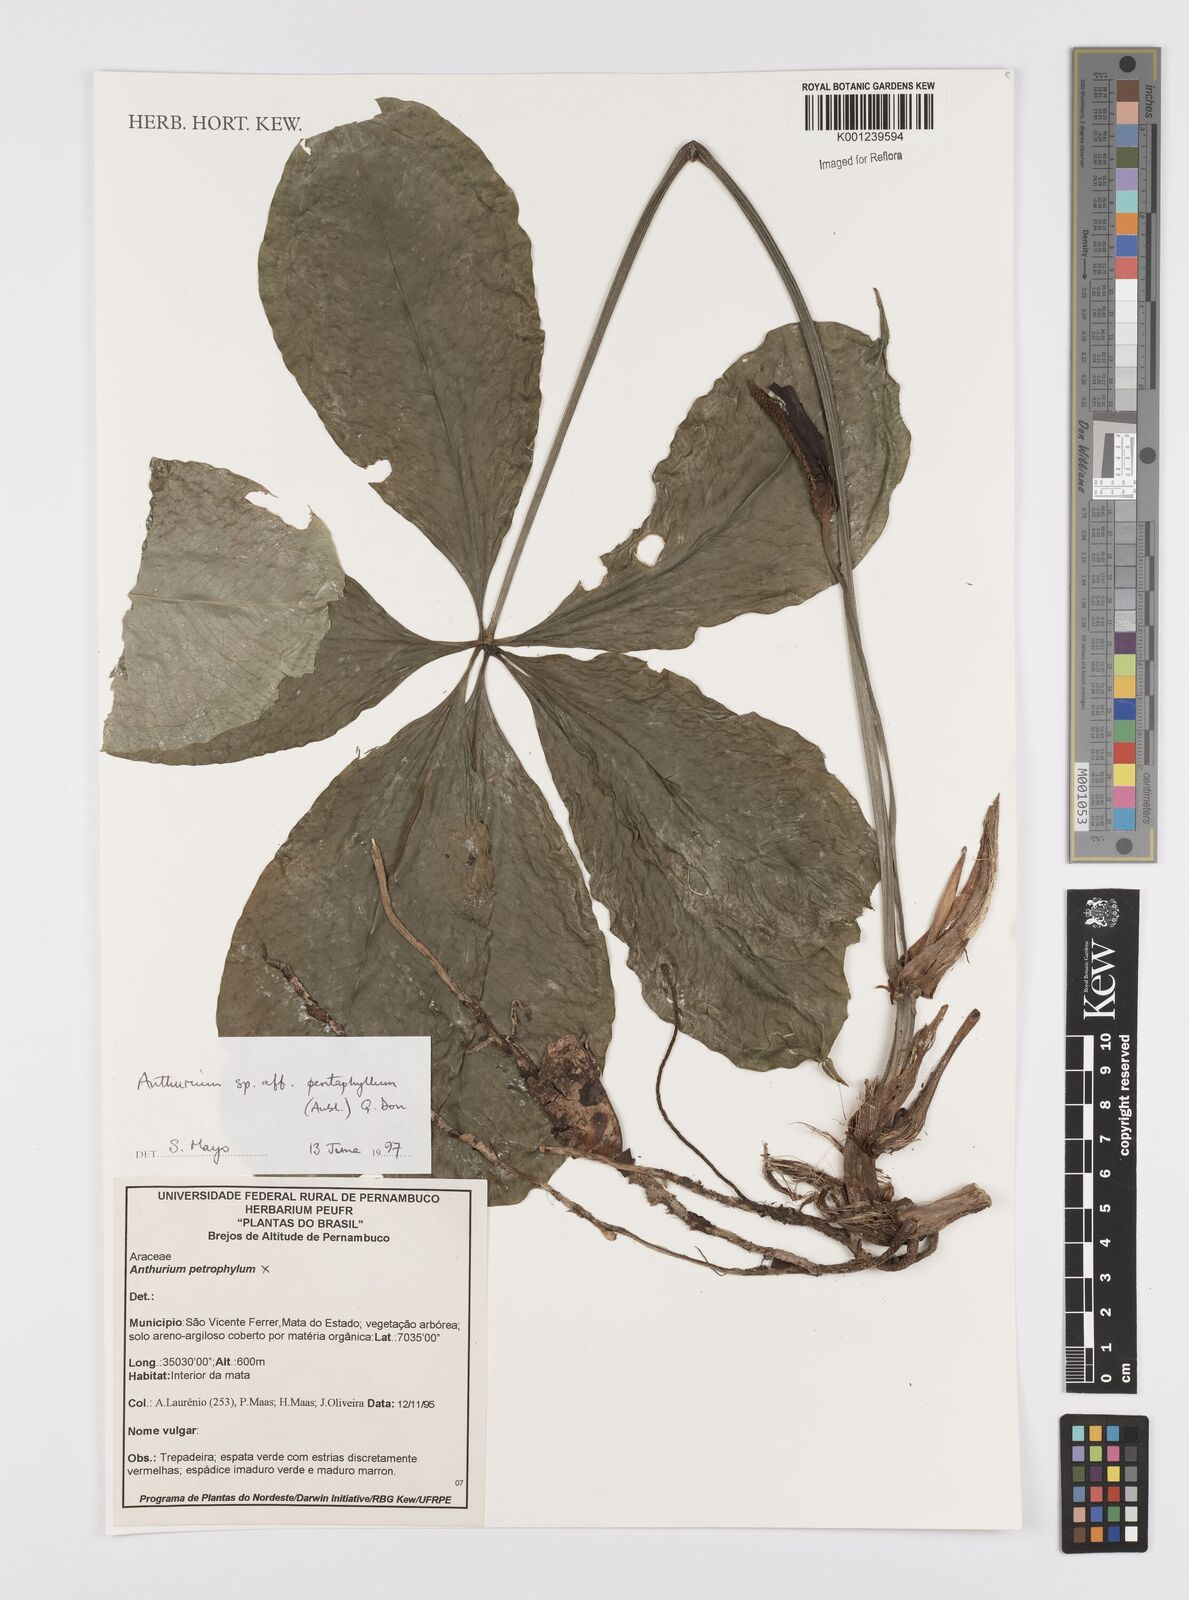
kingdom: Plantae
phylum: Tracheophyta
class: Liliopsida
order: Alismatales
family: Araceae
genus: Anthurium
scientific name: Anthurium pentaphyllum
